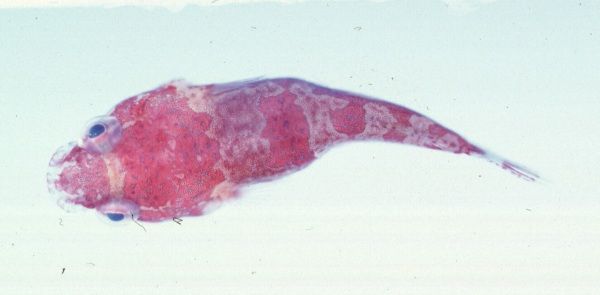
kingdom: Animalia
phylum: Chordata
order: Gobiesociformes
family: Gobiesocidae
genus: Chorisochismus
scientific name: Chorisochismus dentex
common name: Rocksucker
